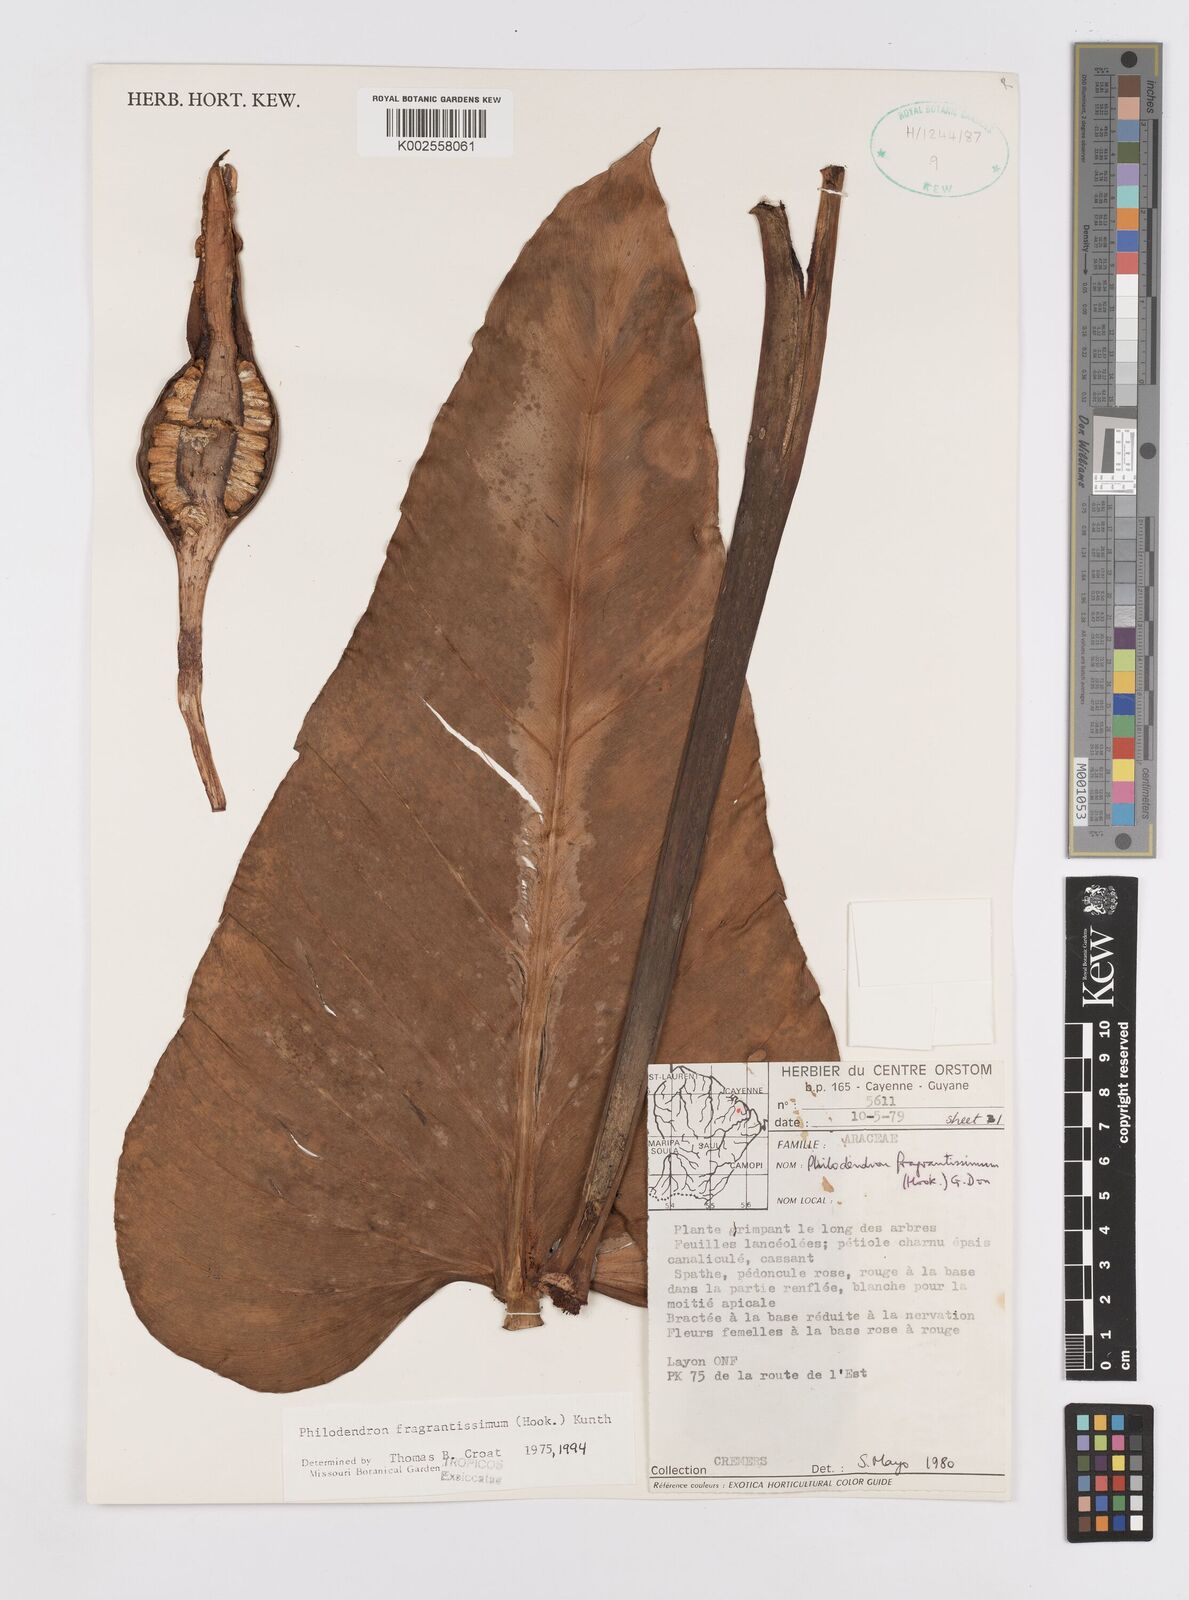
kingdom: Plantae
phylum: Tracheophyta
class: Liliopsida
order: Alismatales
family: Araceae
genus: Philodendron
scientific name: Philodendron fragrantissimum
